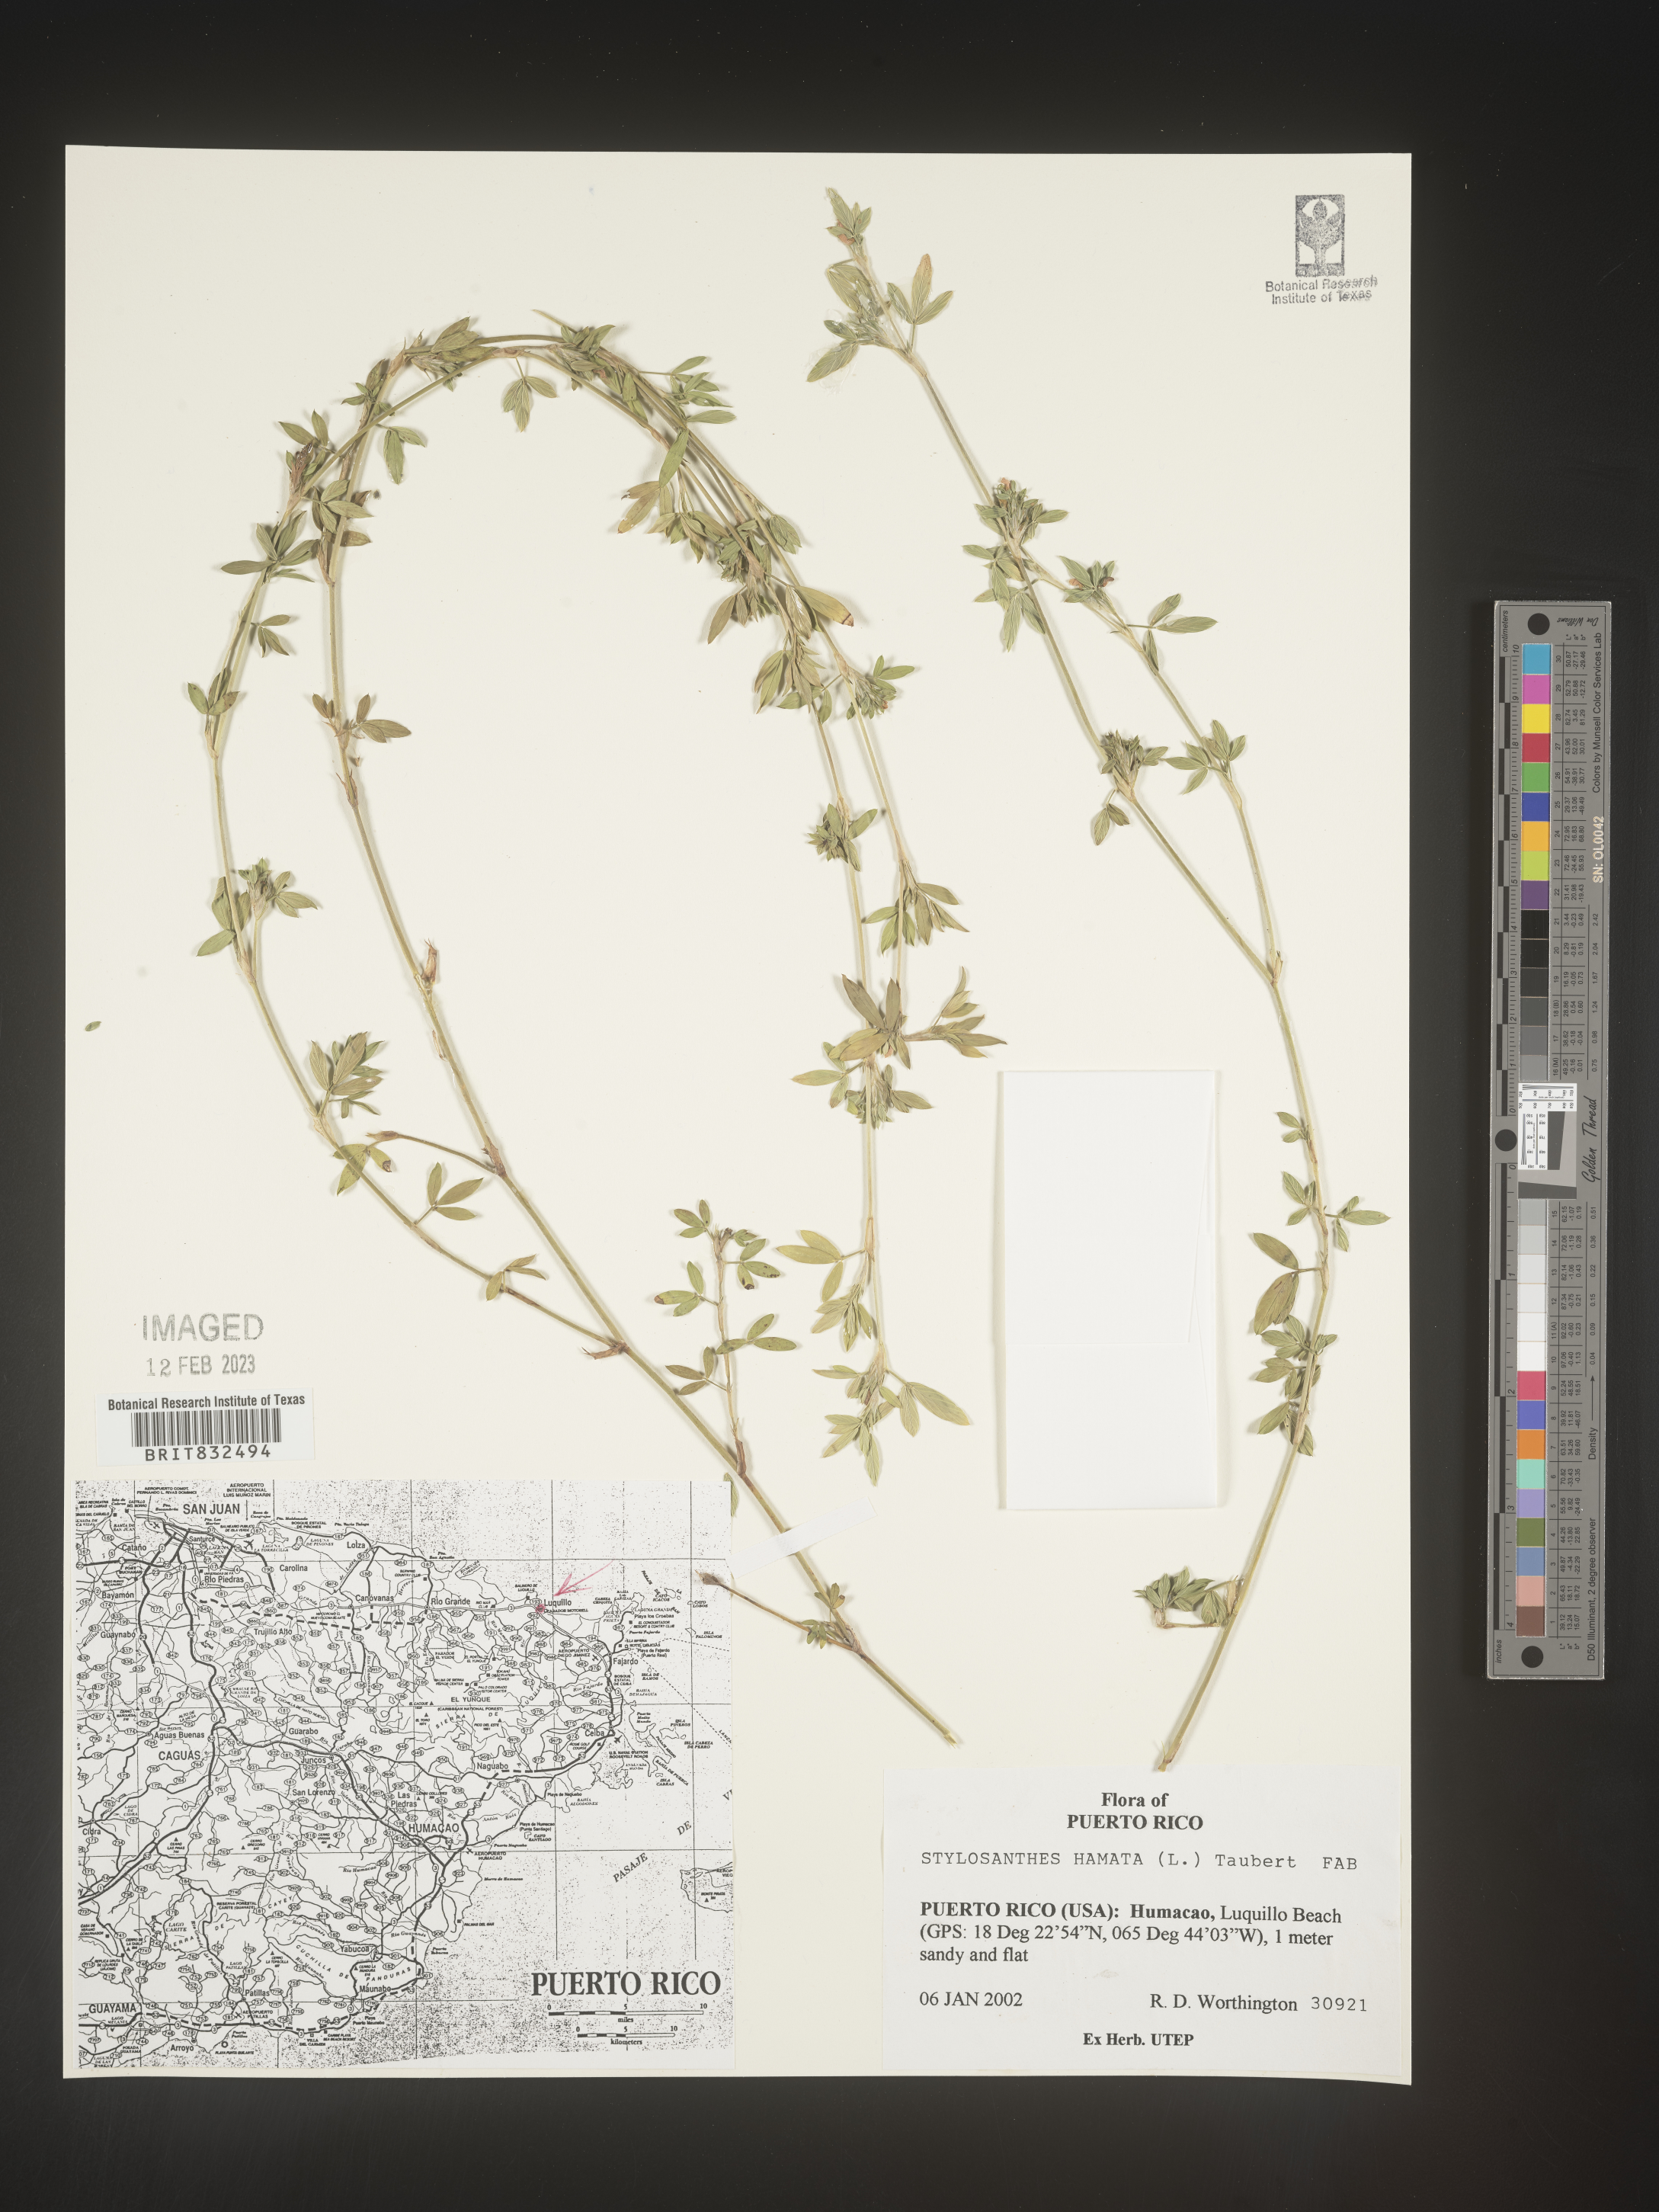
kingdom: Plantae
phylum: Tracheophyta
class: Magnoliopsida
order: Fabales
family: Fabaceae
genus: Stylosanthes
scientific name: Stylosanthes
